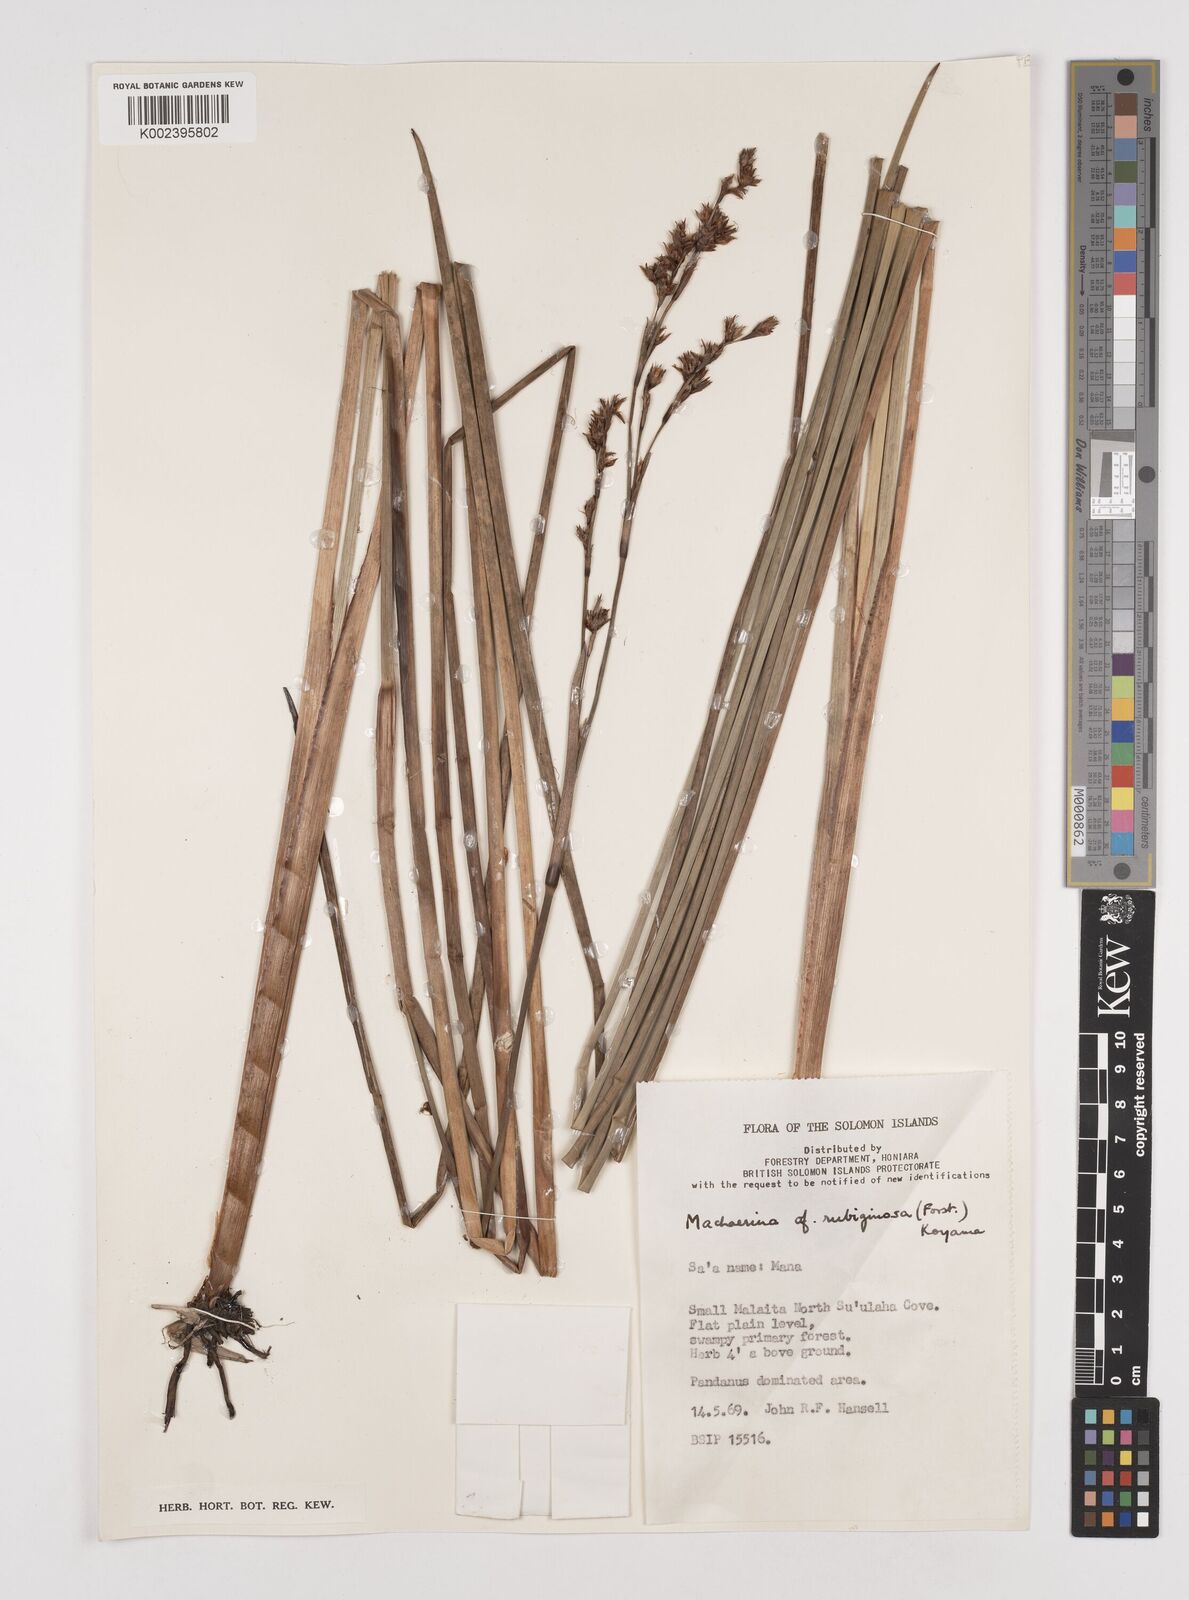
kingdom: Plantae
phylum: Tracheophyta
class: Liliopsida
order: Poales
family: Cyperaceae
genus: Machaerina
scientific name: Machaerina rubiginosa
